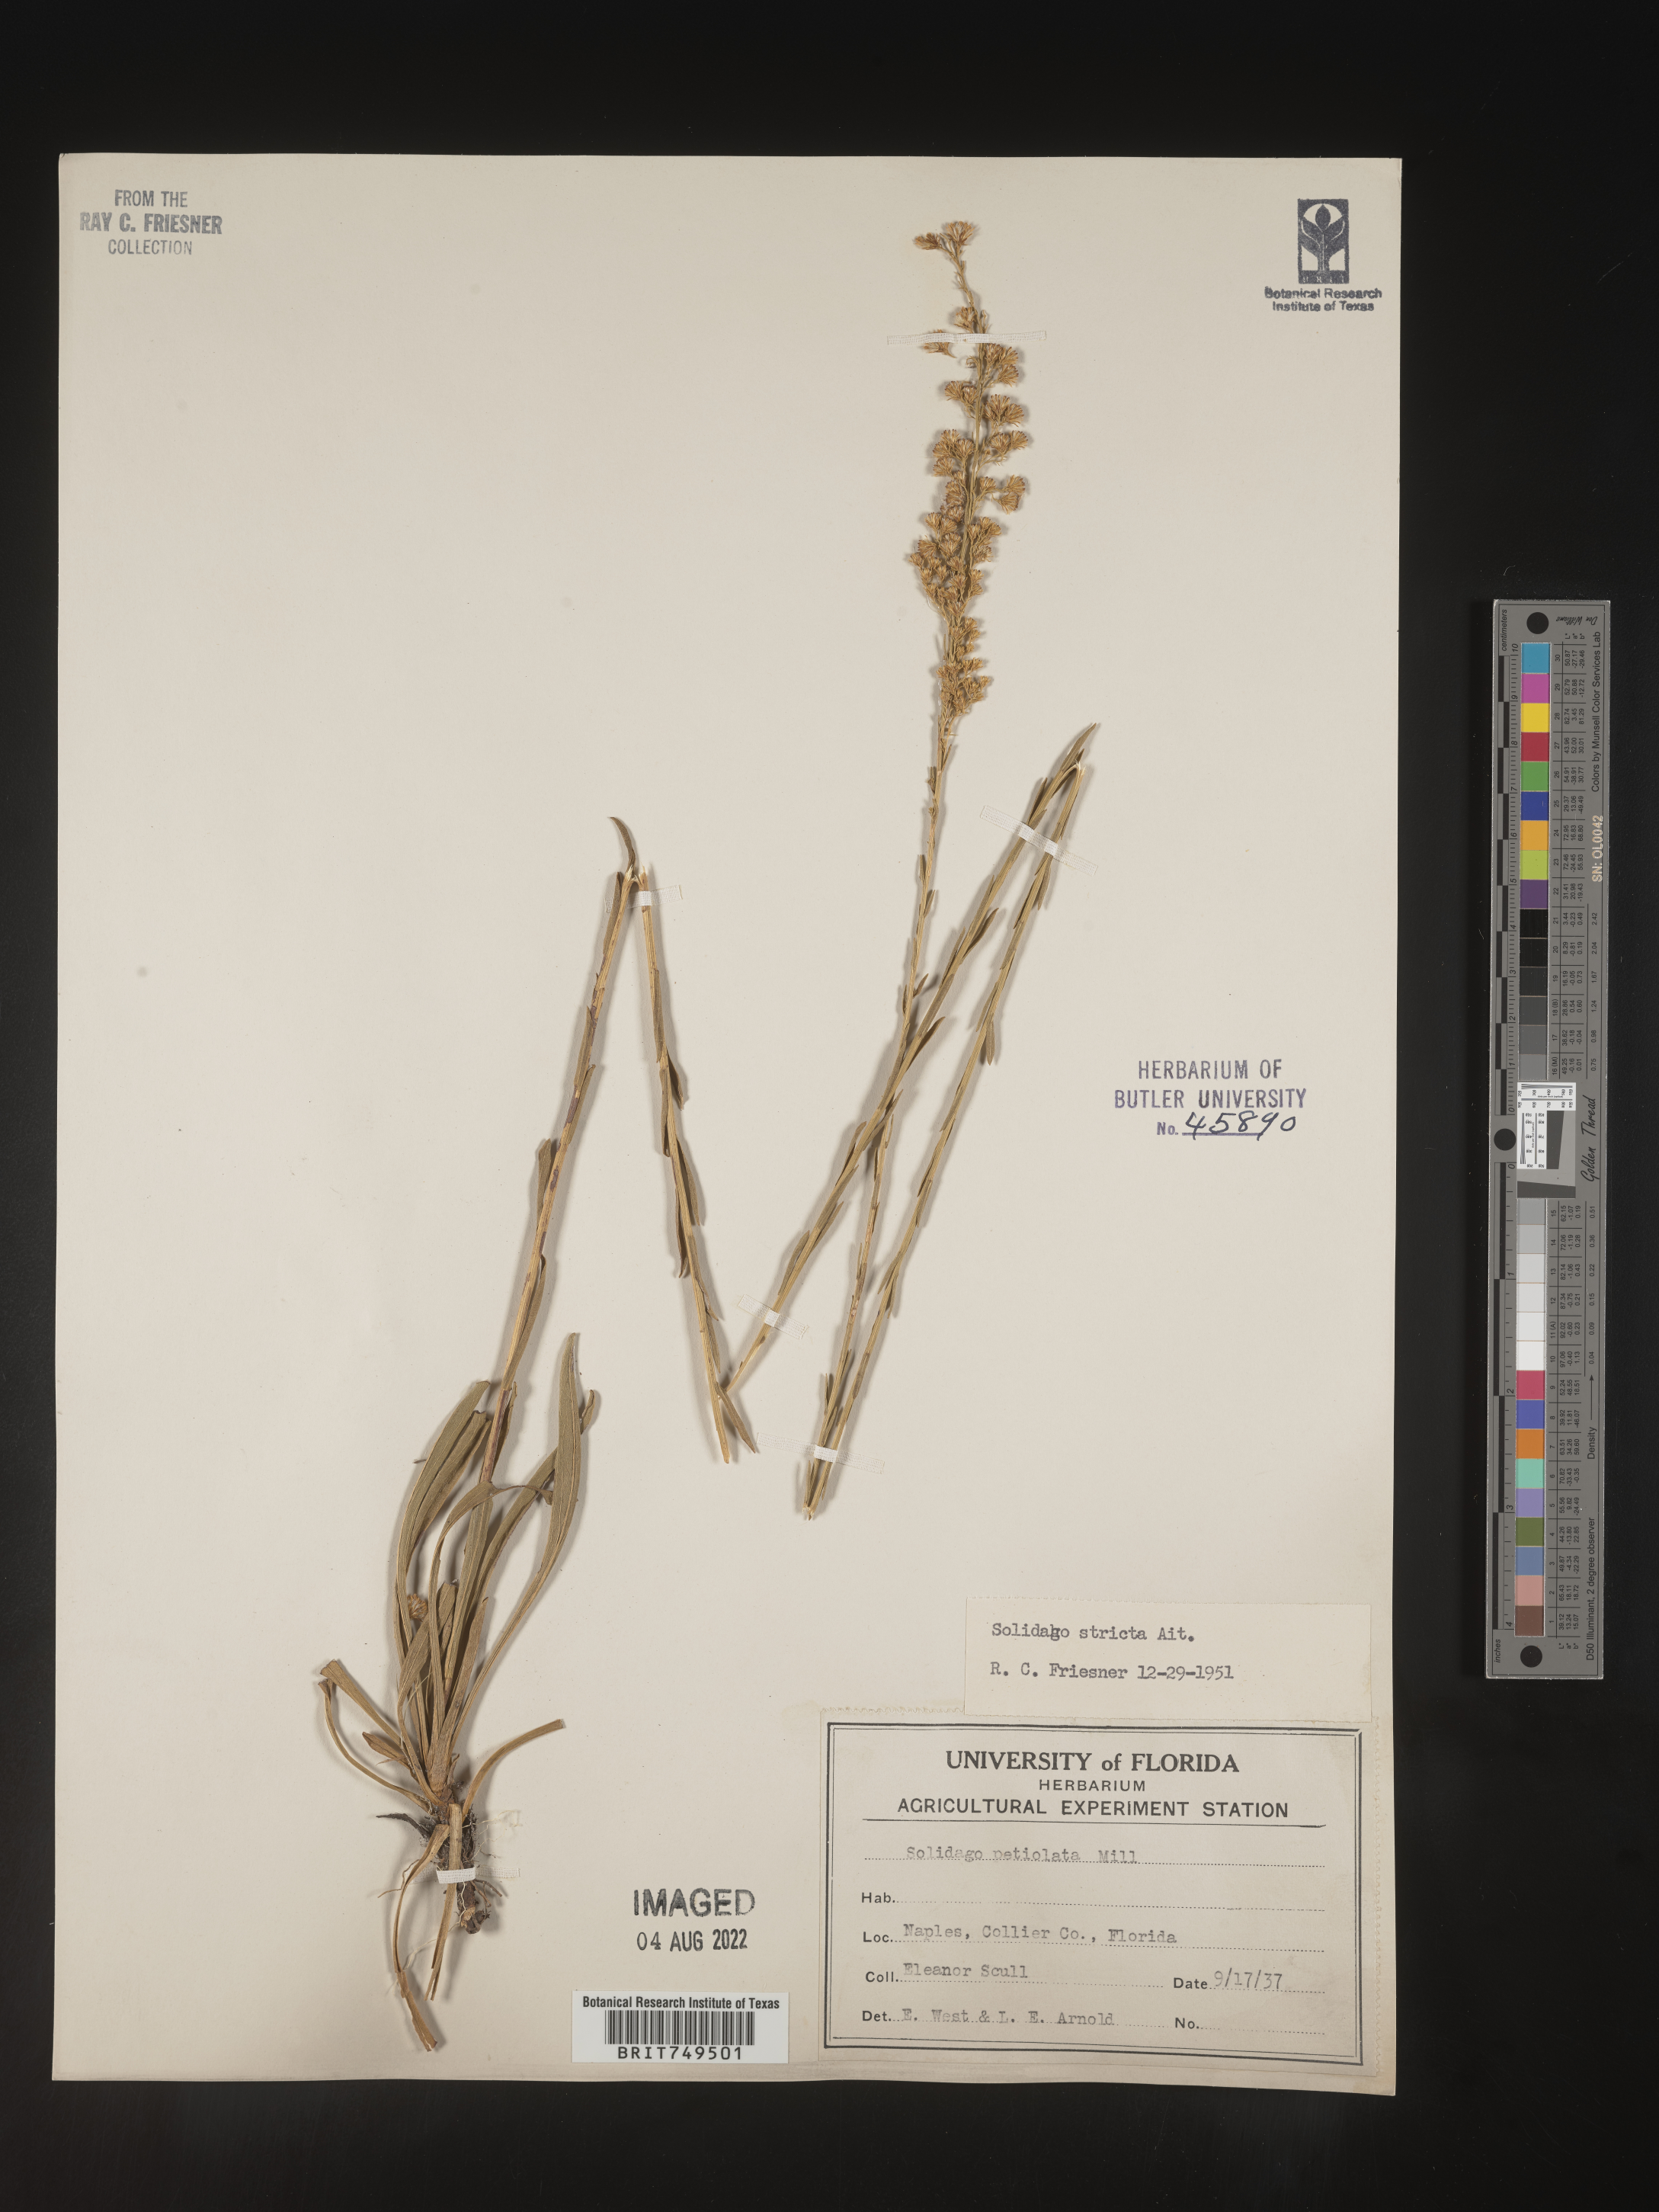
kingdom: Plantae
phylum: Tracheophyta
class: Magnoliopsida
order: Asterales
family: Asteraceae
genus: Solidago
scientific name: Solidago stricta
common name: Pine barren bog goldenrod
